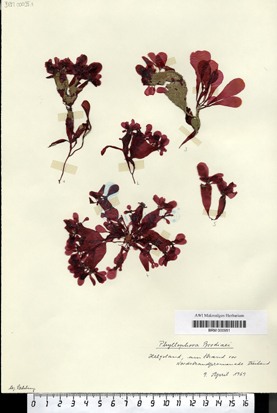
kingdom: Plantae
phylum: Rhodophyta
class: Florideophyceae
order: Gigartinales
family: Phyllophoraceae
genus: Coccotylus
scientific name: Coccotylus
